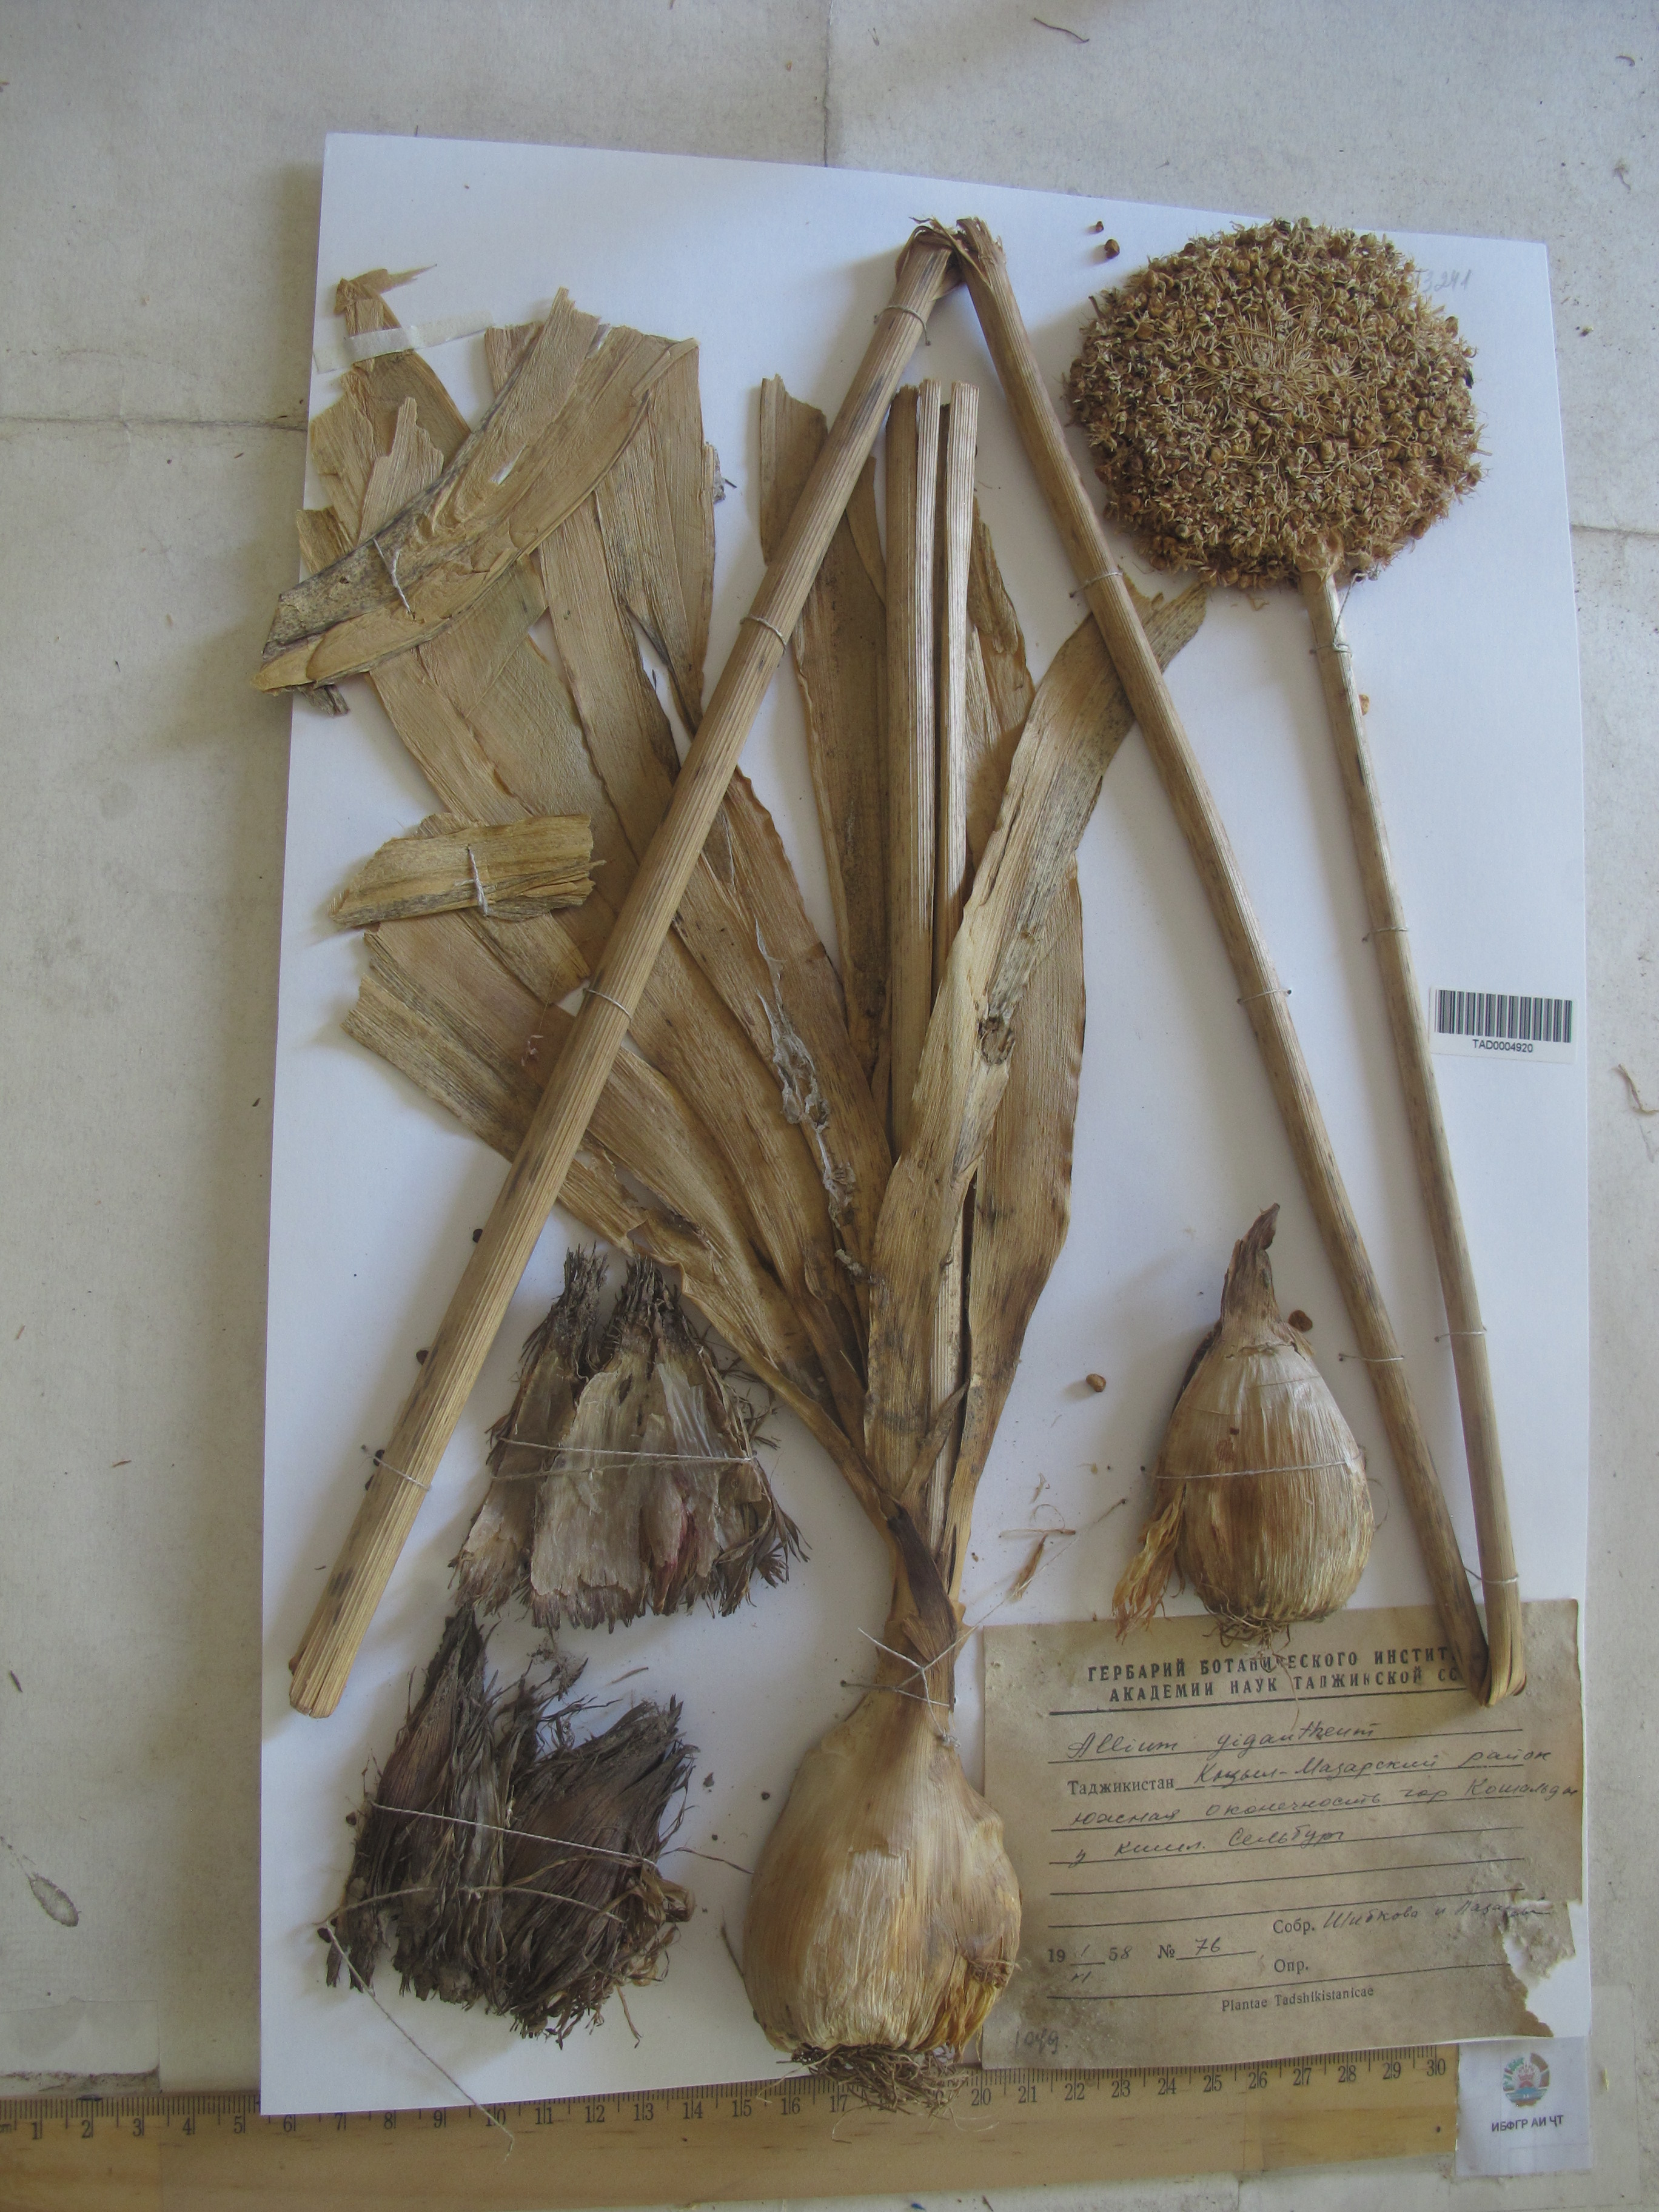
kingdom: Plantae
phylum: Tracheophyta
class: Liliopsida
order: Asparagales
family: Amaryllidaceae
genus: Allium
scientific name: Allium giganteum
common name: Giant onion
